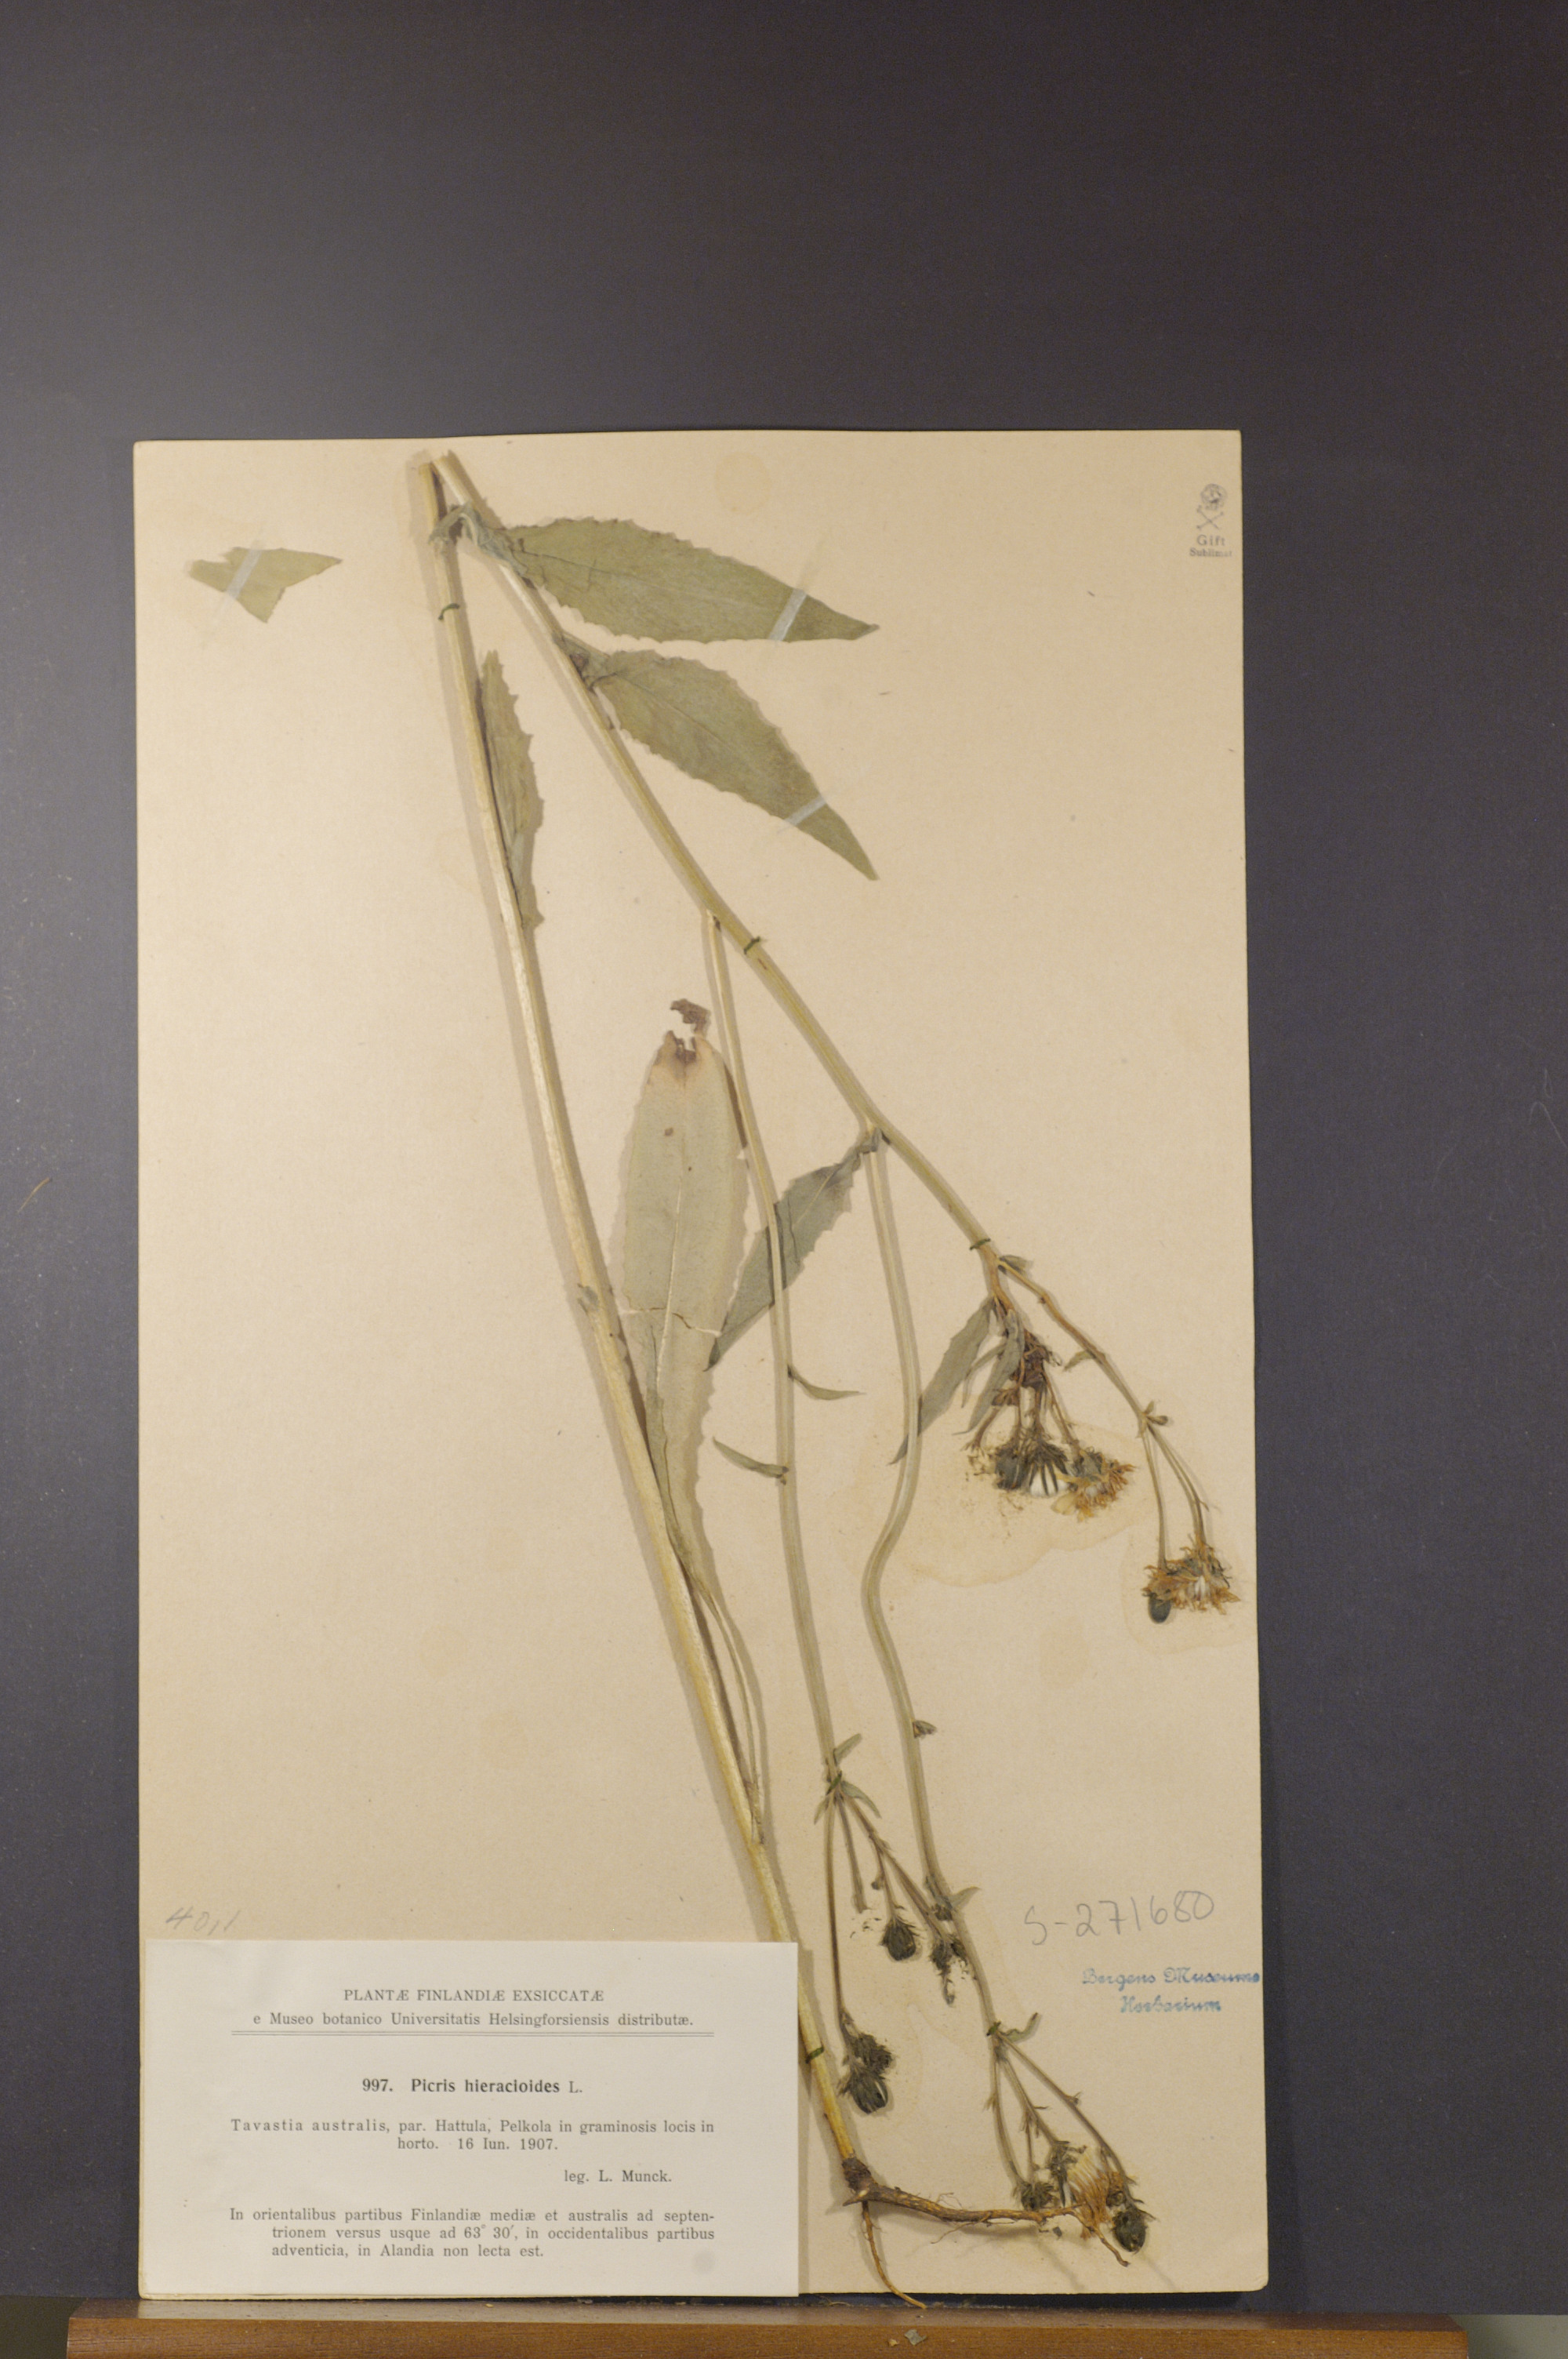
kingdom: Plantae
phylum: Tracheophyta
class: Magnoliopsida
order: Asterales
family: Asteraceae
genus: Picris
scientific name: Picris hieracioides
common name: Hawkweed oxtongue
